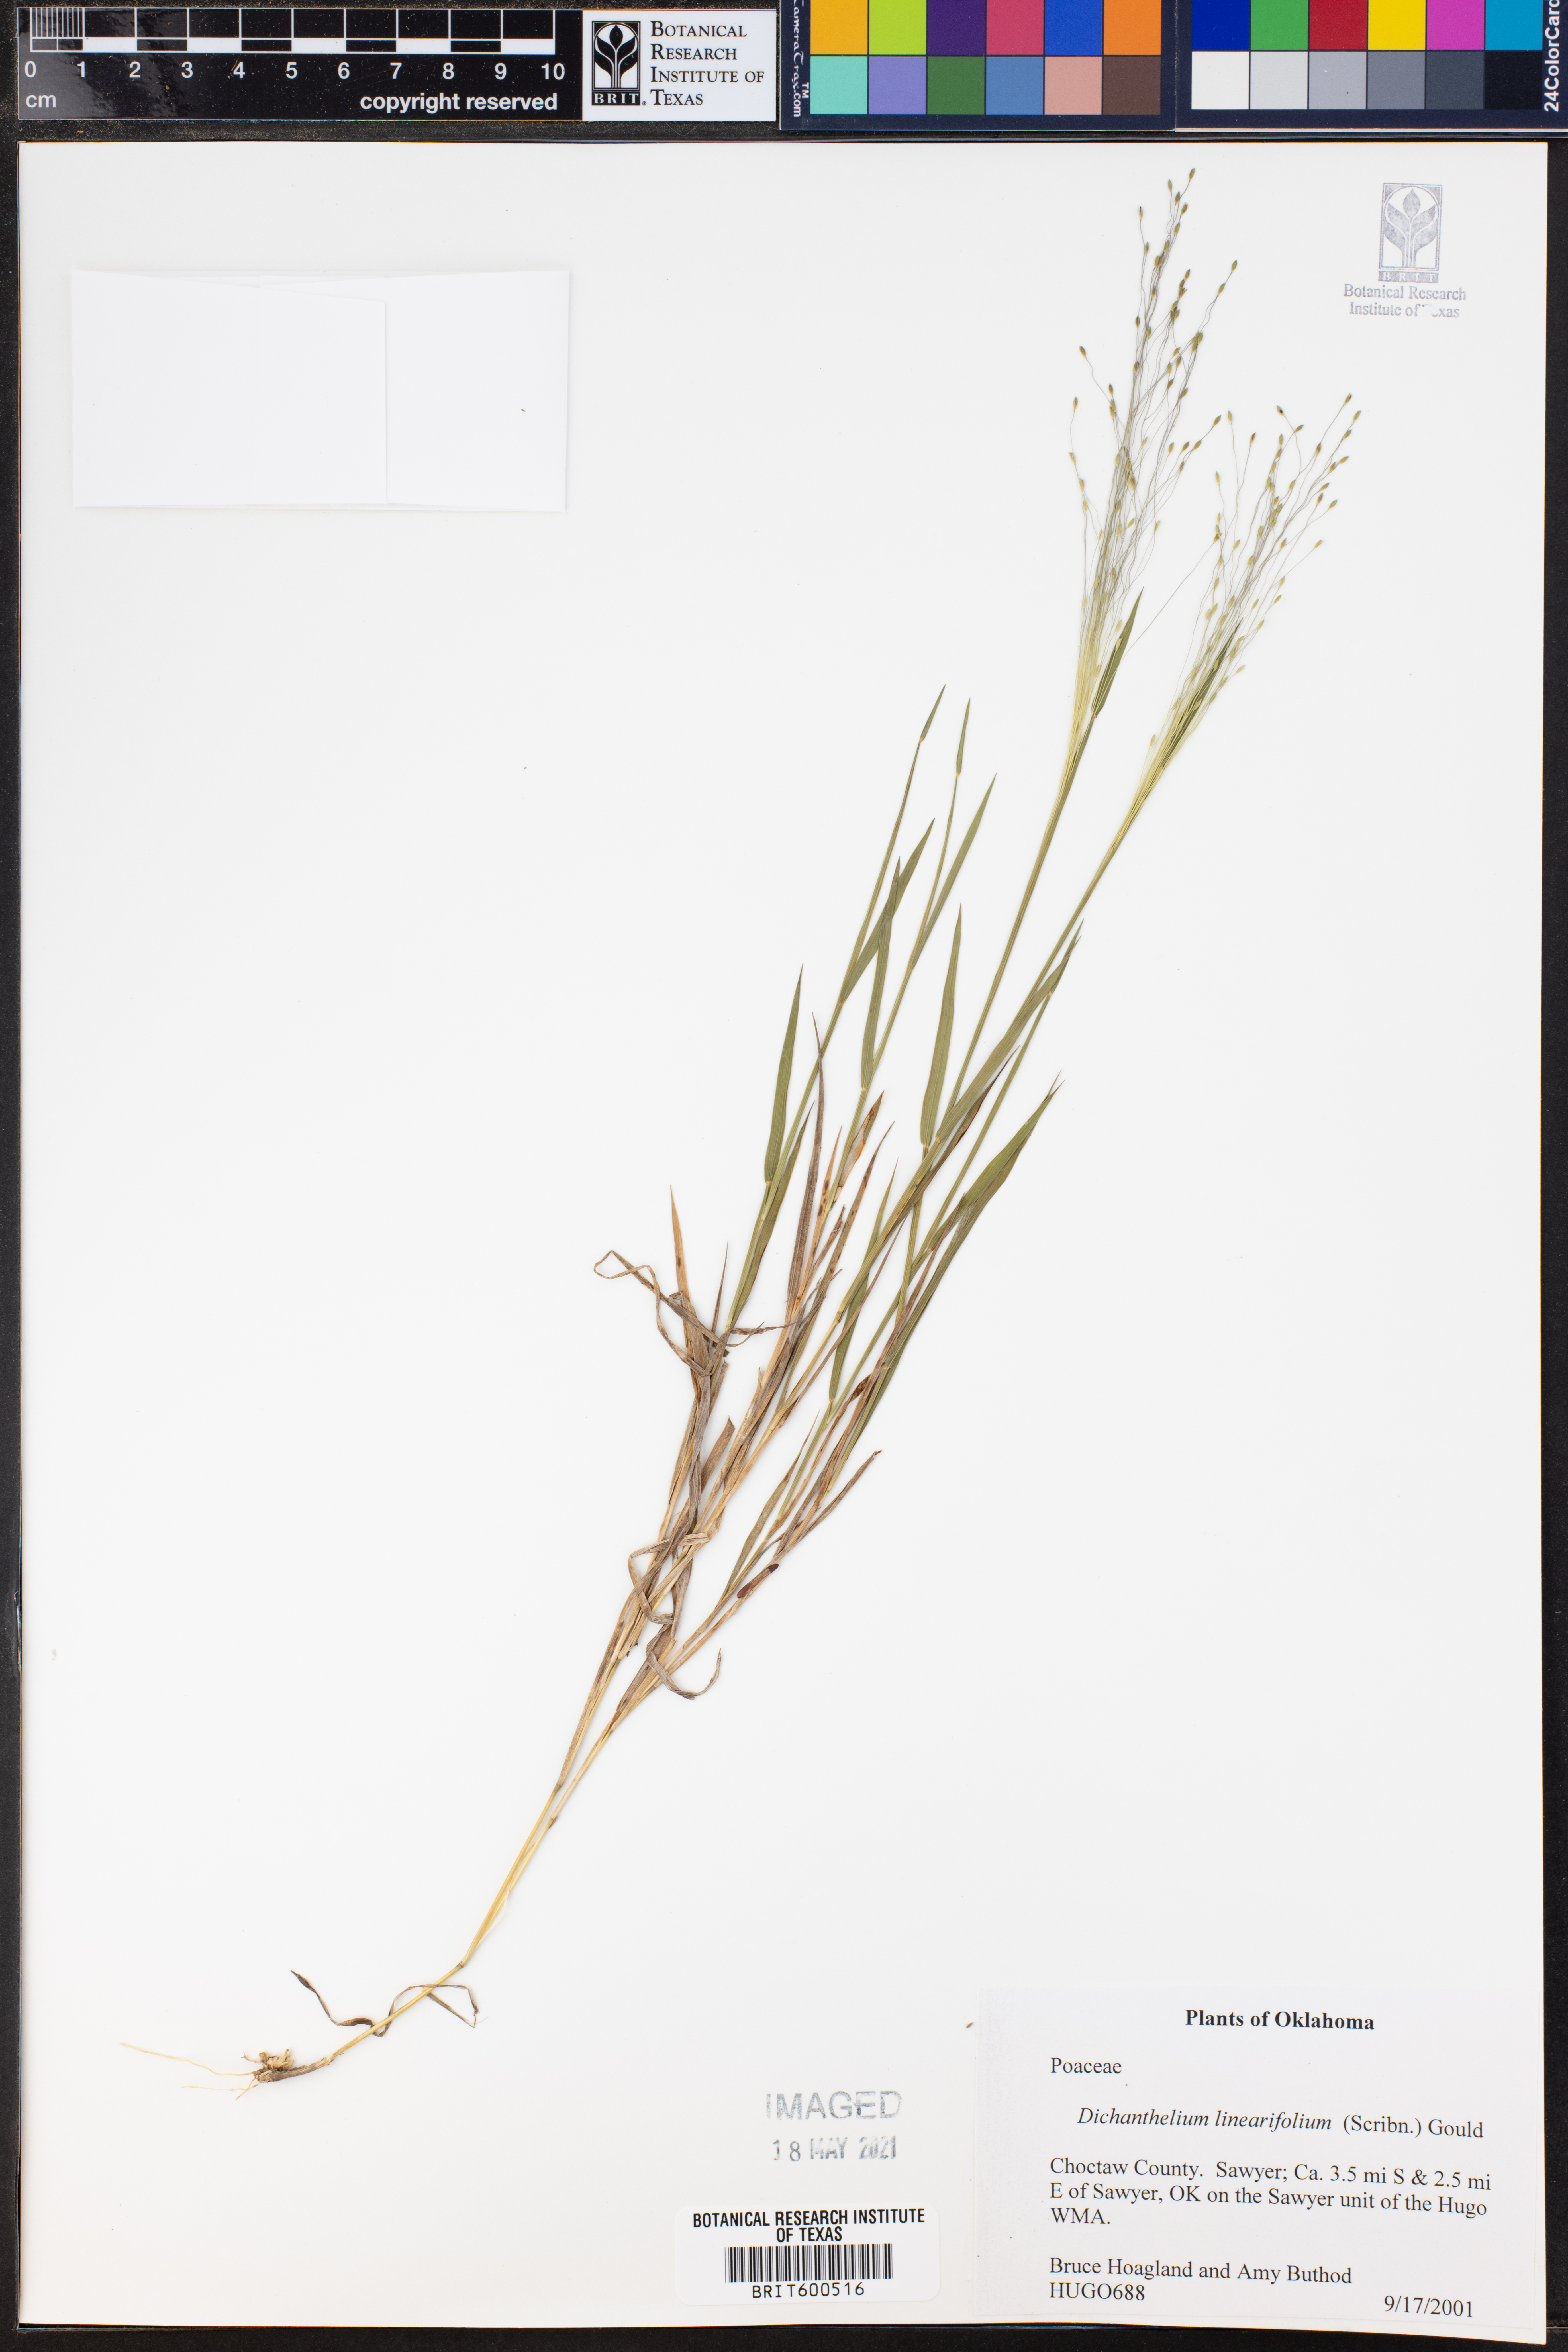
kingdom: Plantae
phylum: Tracheophyta
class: Liliopsida
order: Poales
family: Poaceae
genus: Dichanthelium
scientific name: Dichanthelium linearifolium
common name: Linear-leaved panicgrass
